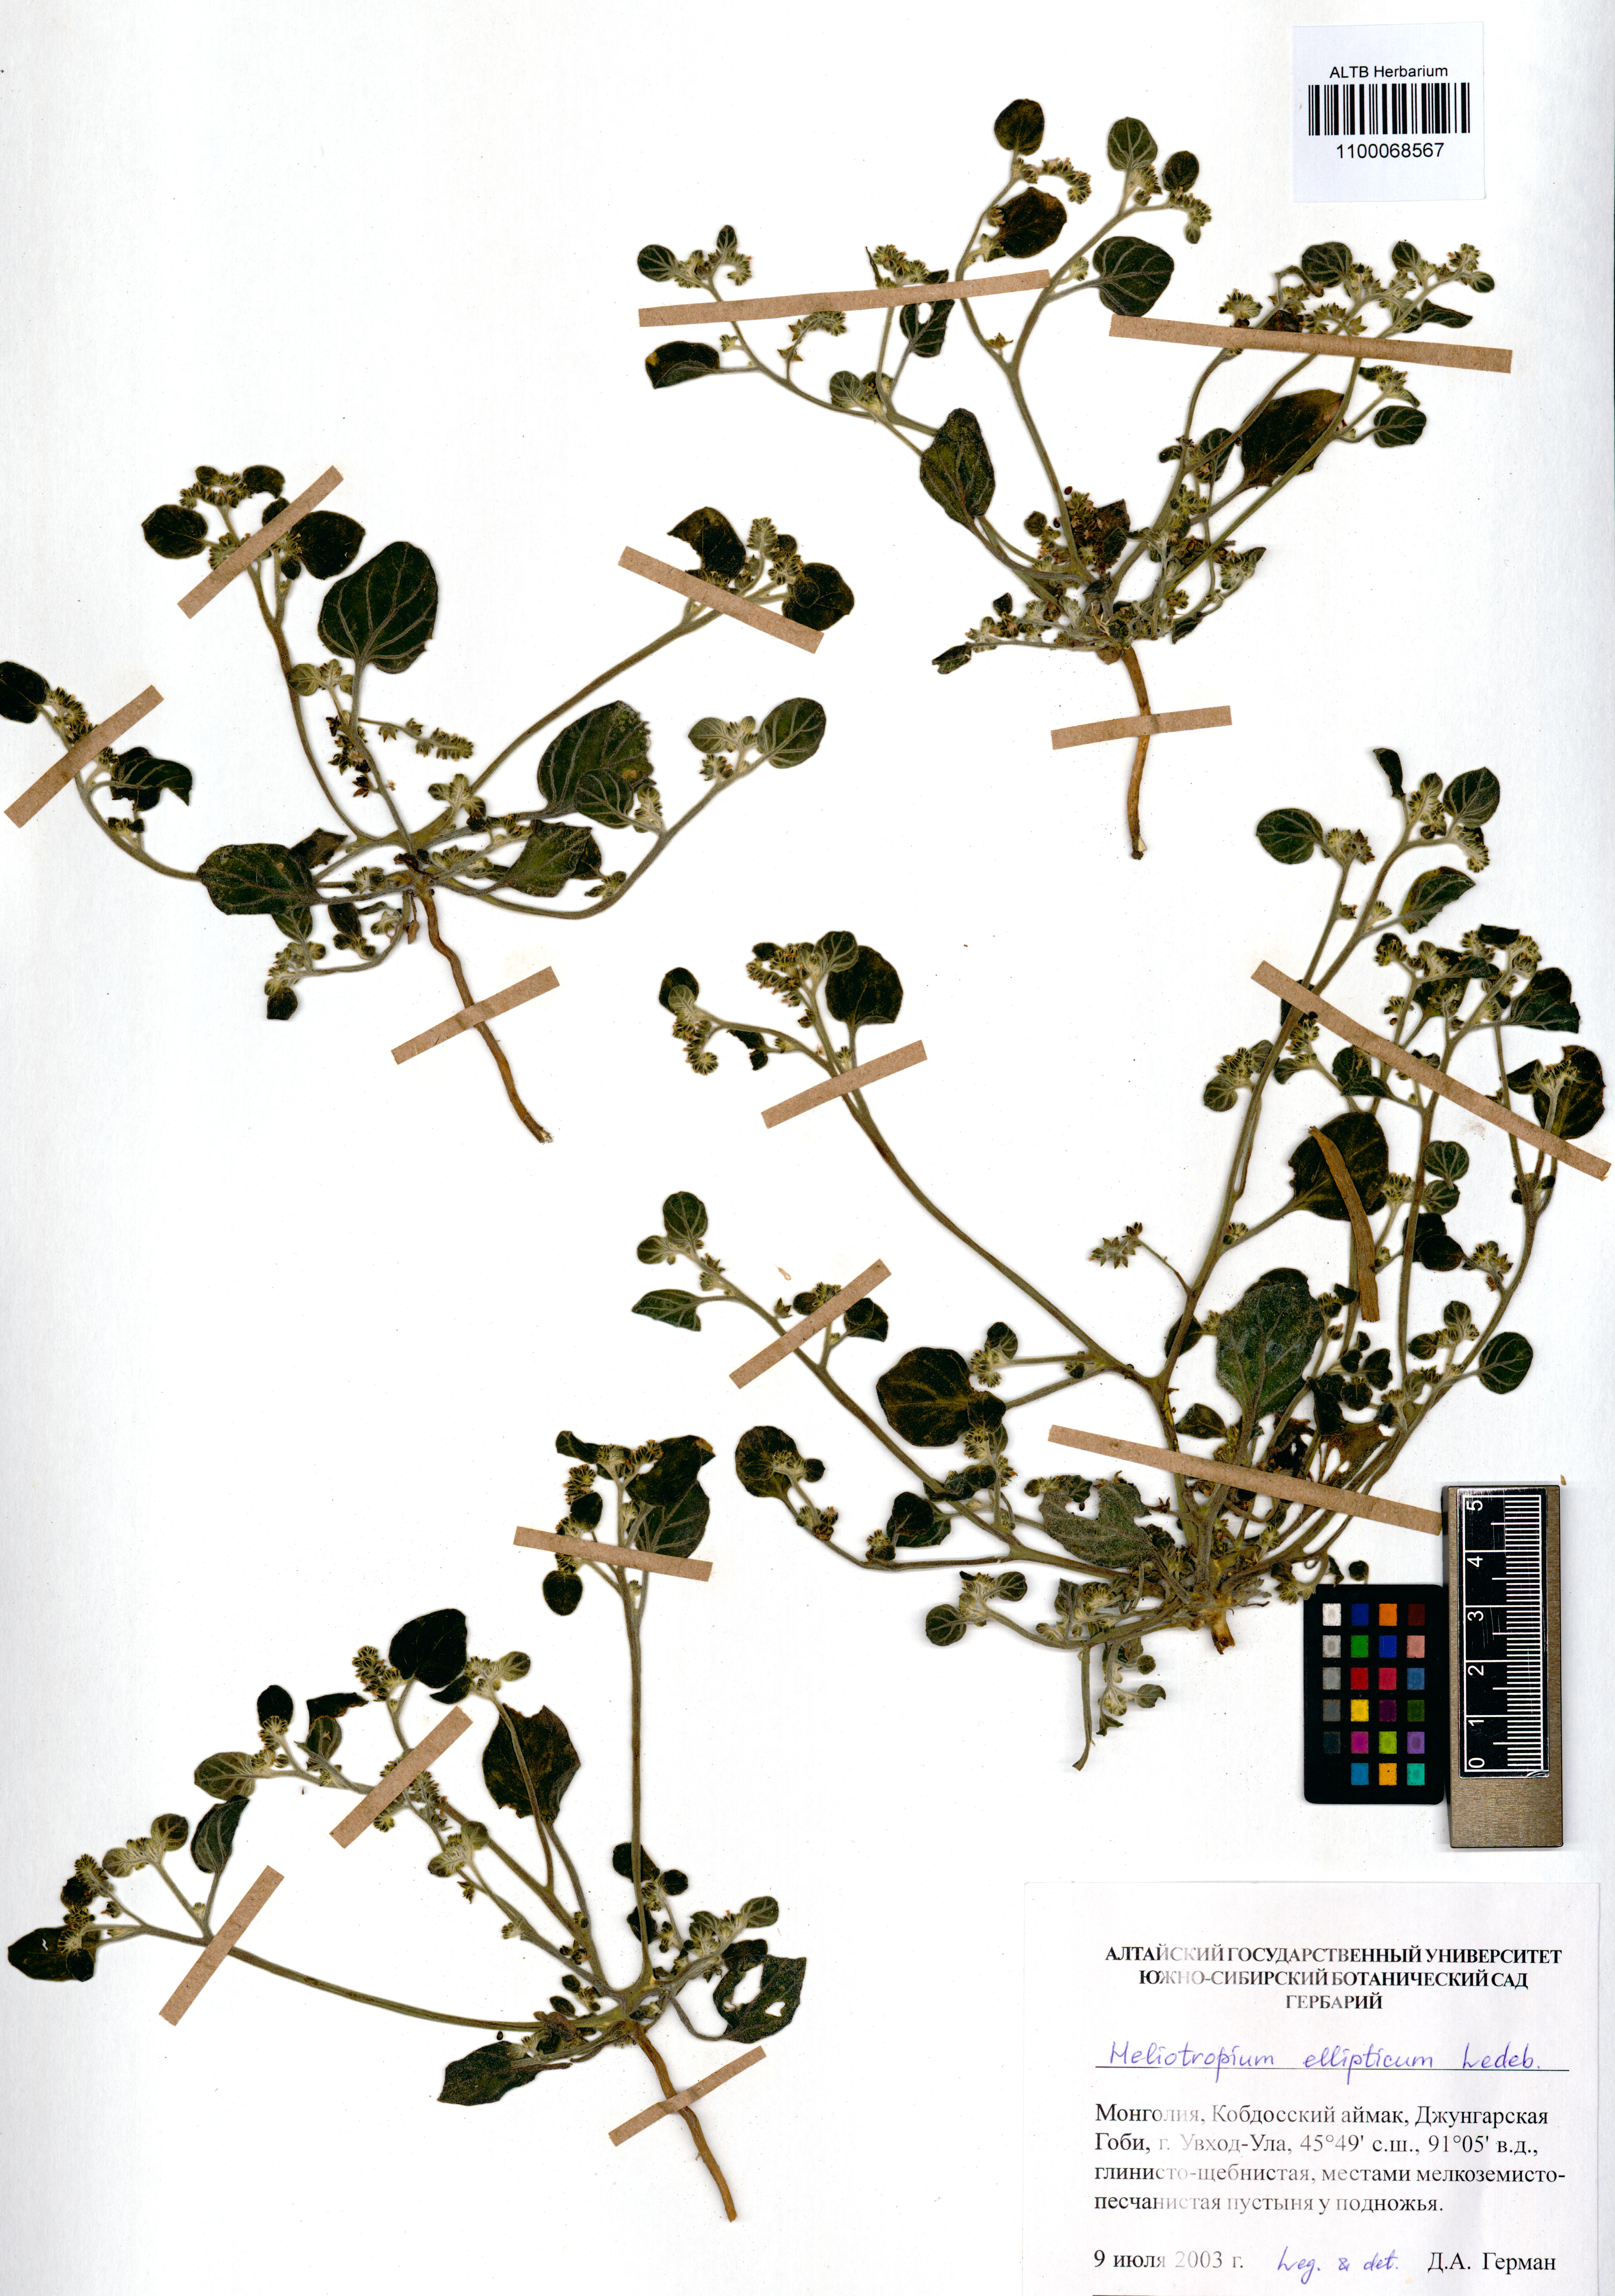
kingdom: Plantae
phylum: Tracheophyta
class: Magnoliopsida
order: Boraginales
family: Heliotropiaceae
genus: Heliotropium
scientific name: Heliotropium ellipticum
